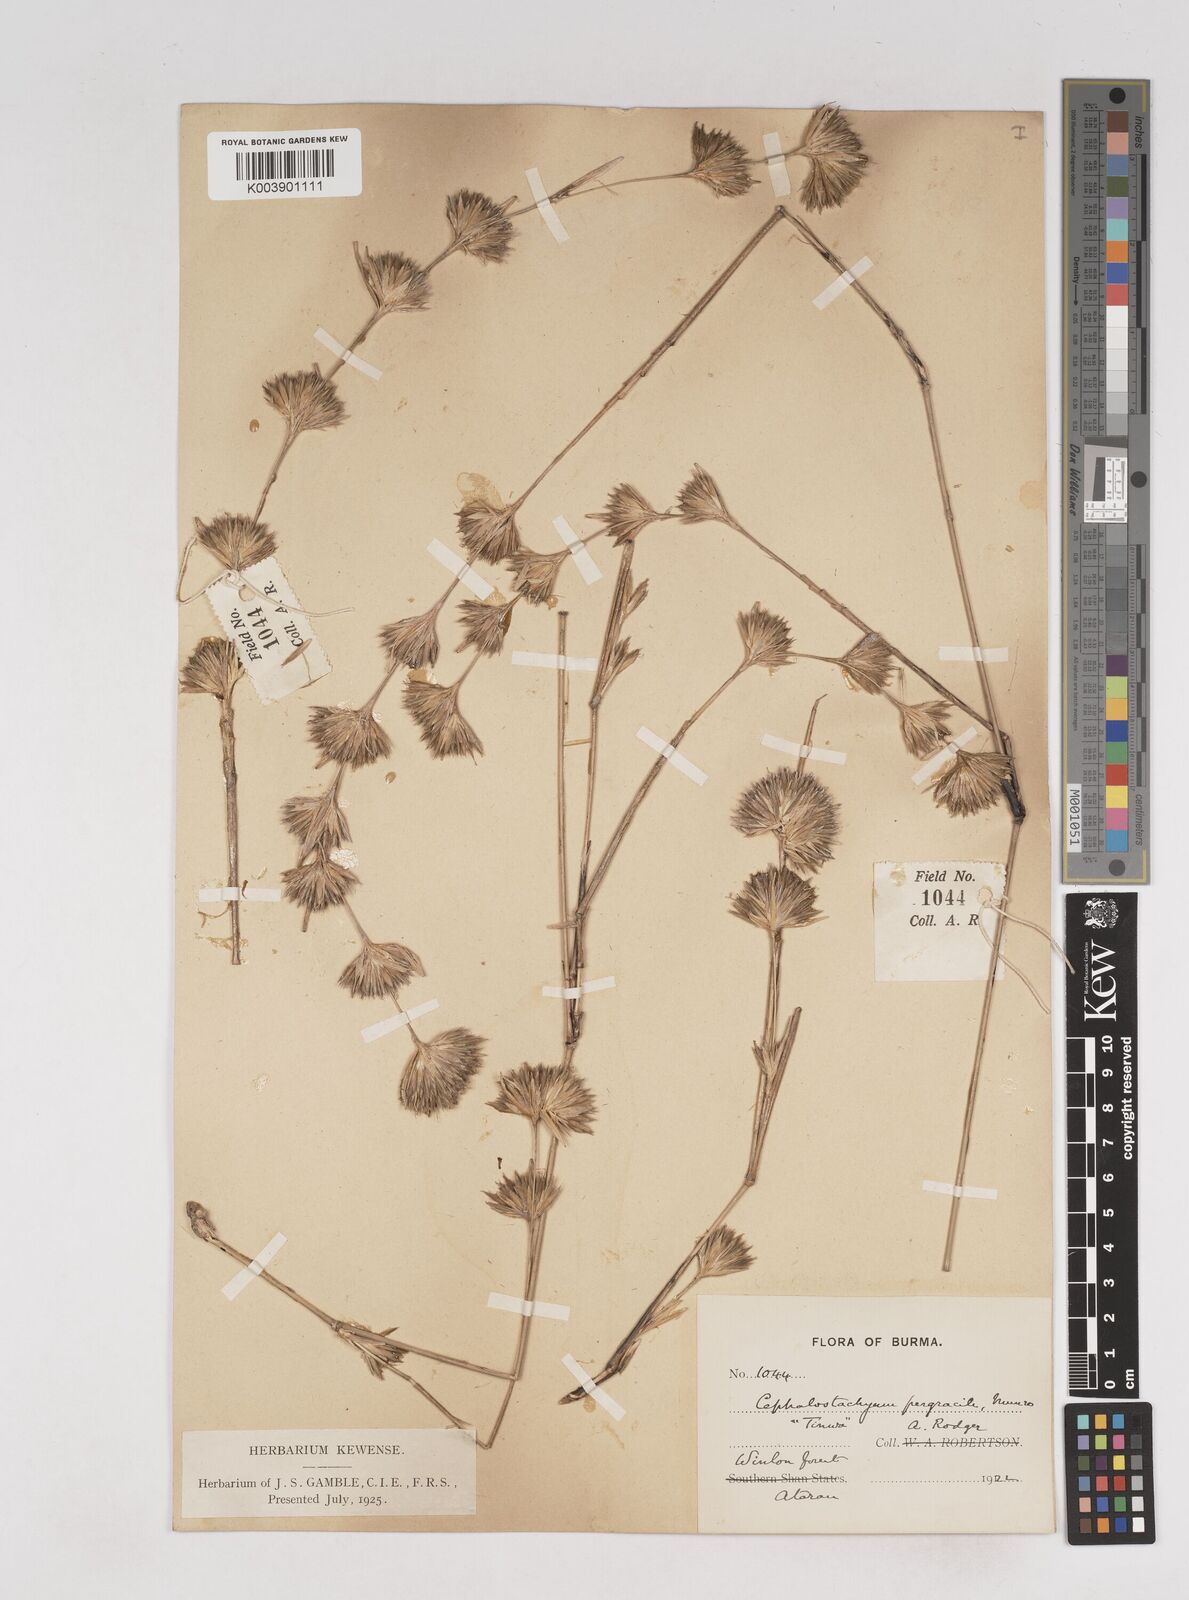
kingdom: Plantae
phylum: Tracheophyta
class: Liliopsida
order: Poales
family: Poaceae
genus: Schizostachyum
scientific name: Schizostachyum pergracile
